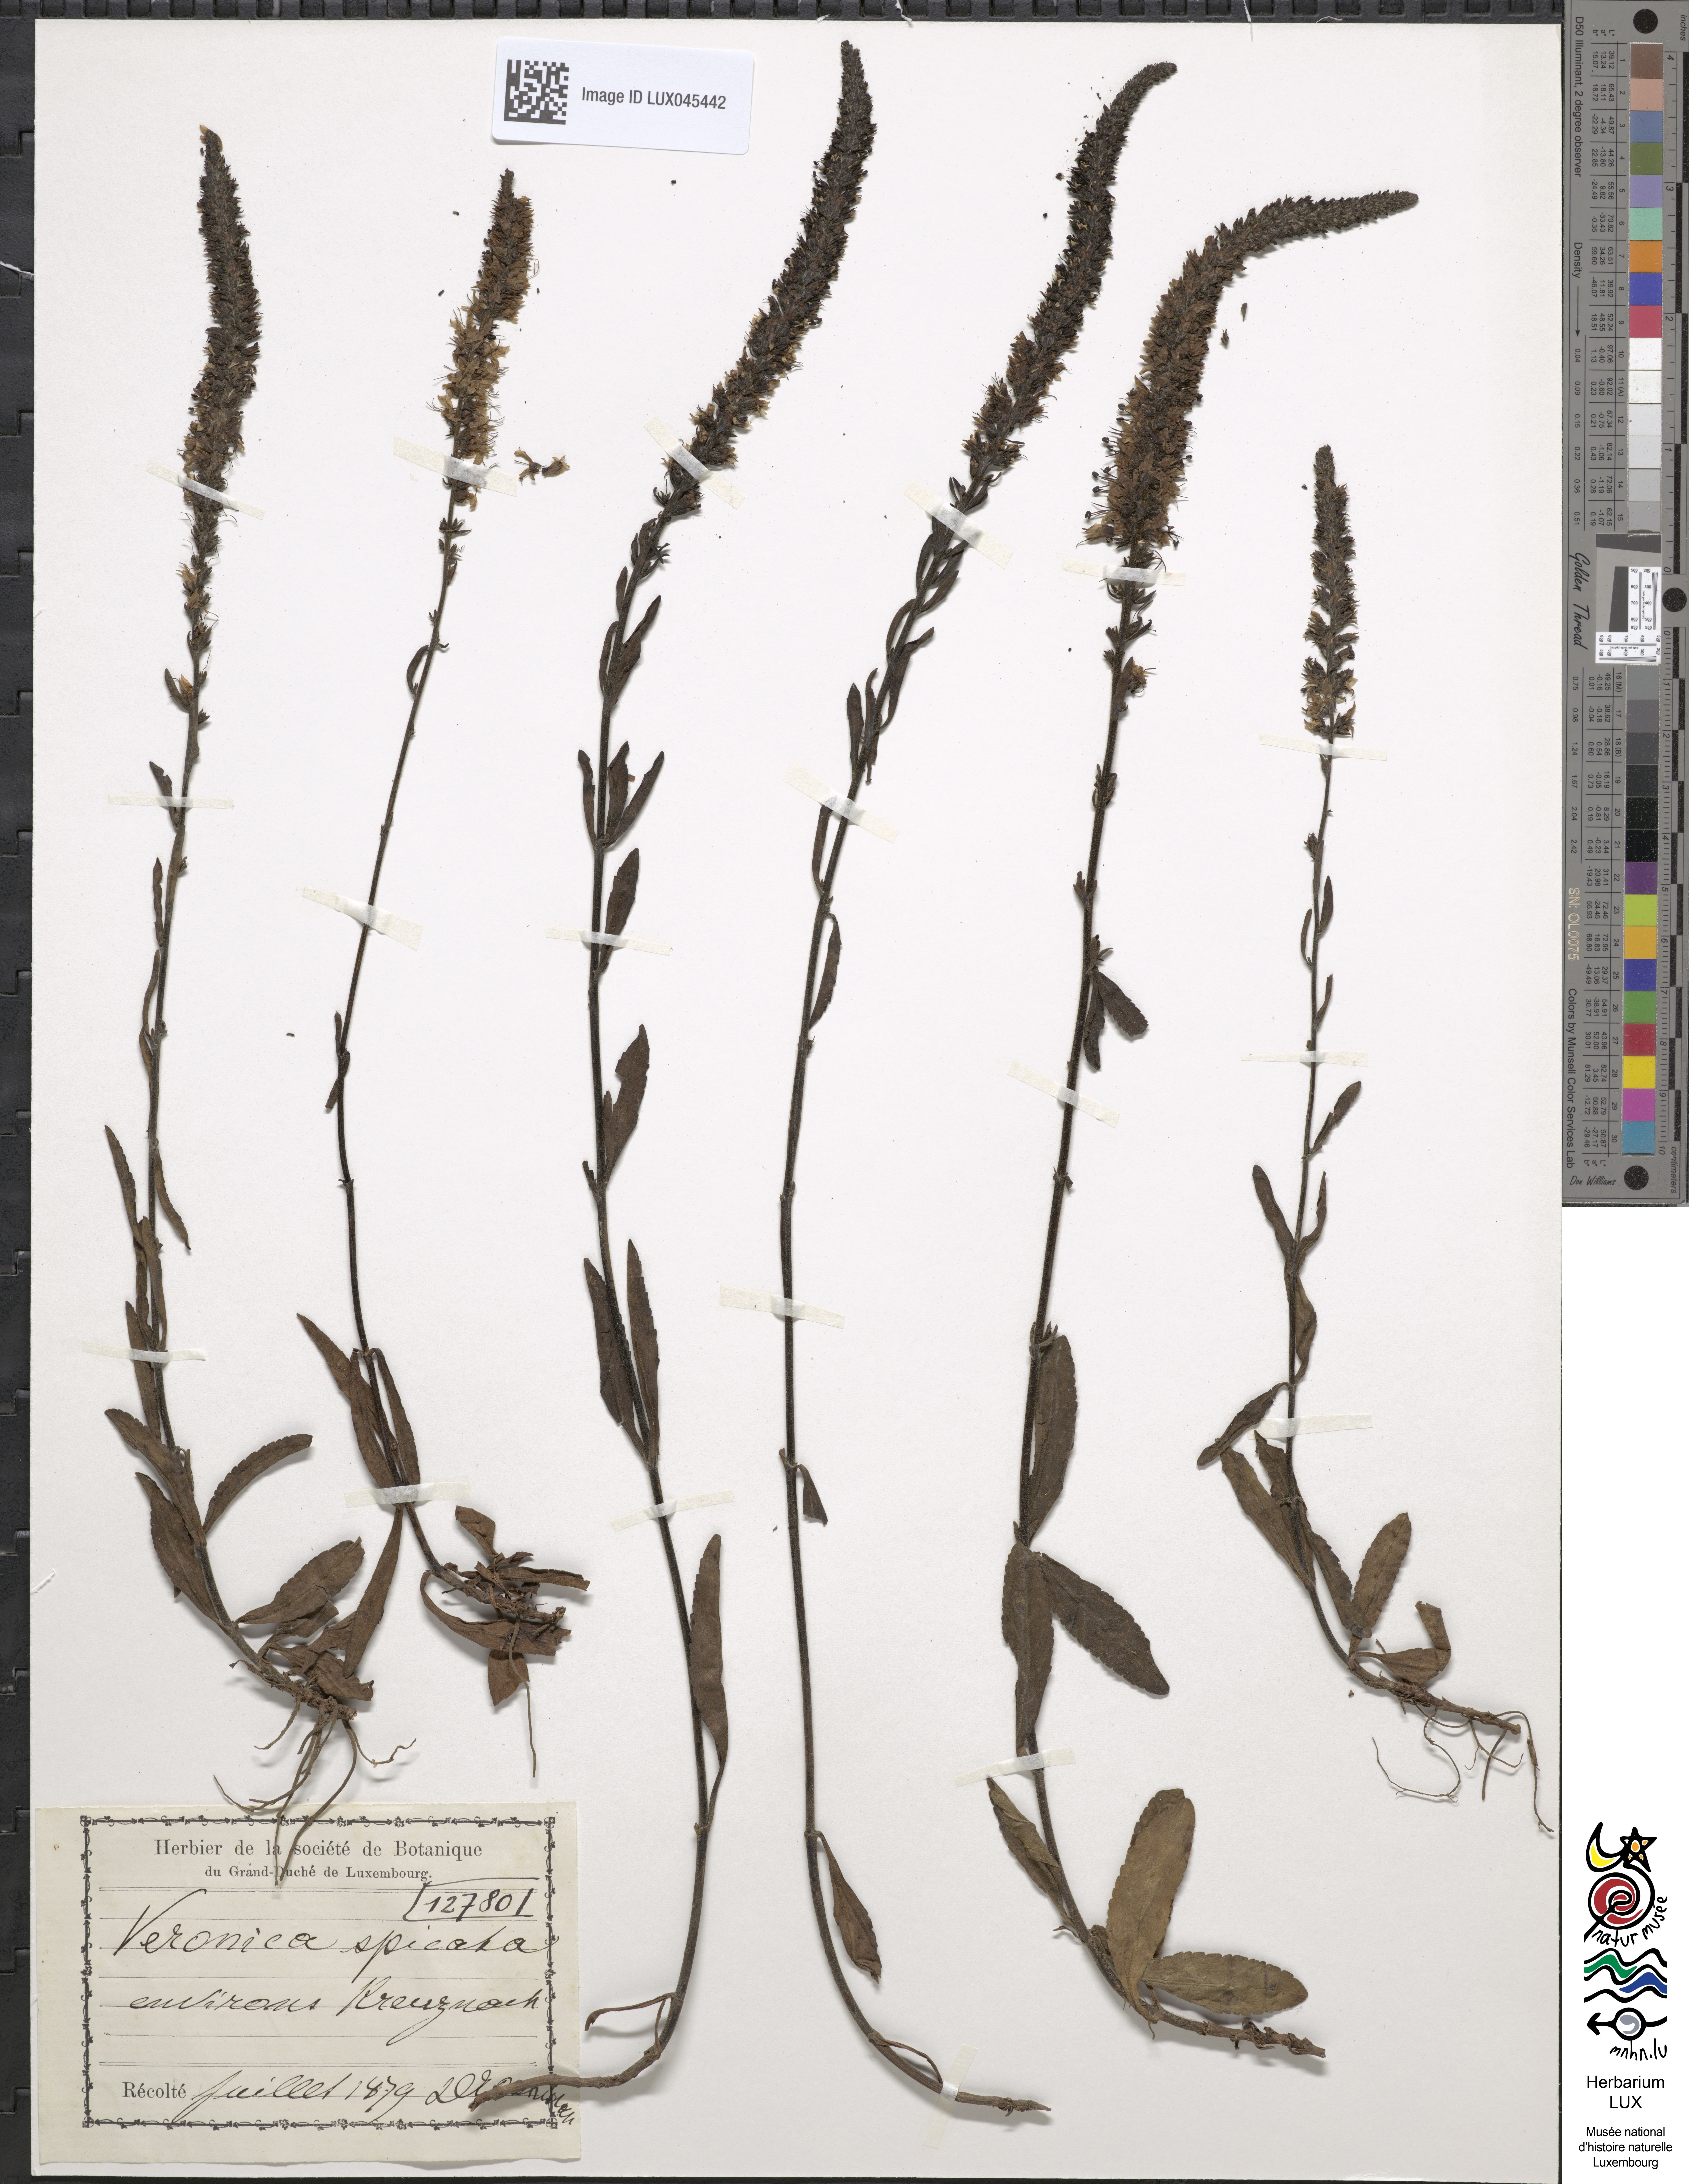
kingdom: Plantae
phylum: Tracheophyta
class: Magnoliopsida
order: Lamiales
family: Plantaginaceae
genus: Veronica
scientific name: Veronica spicata
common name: Spiked speedwell
